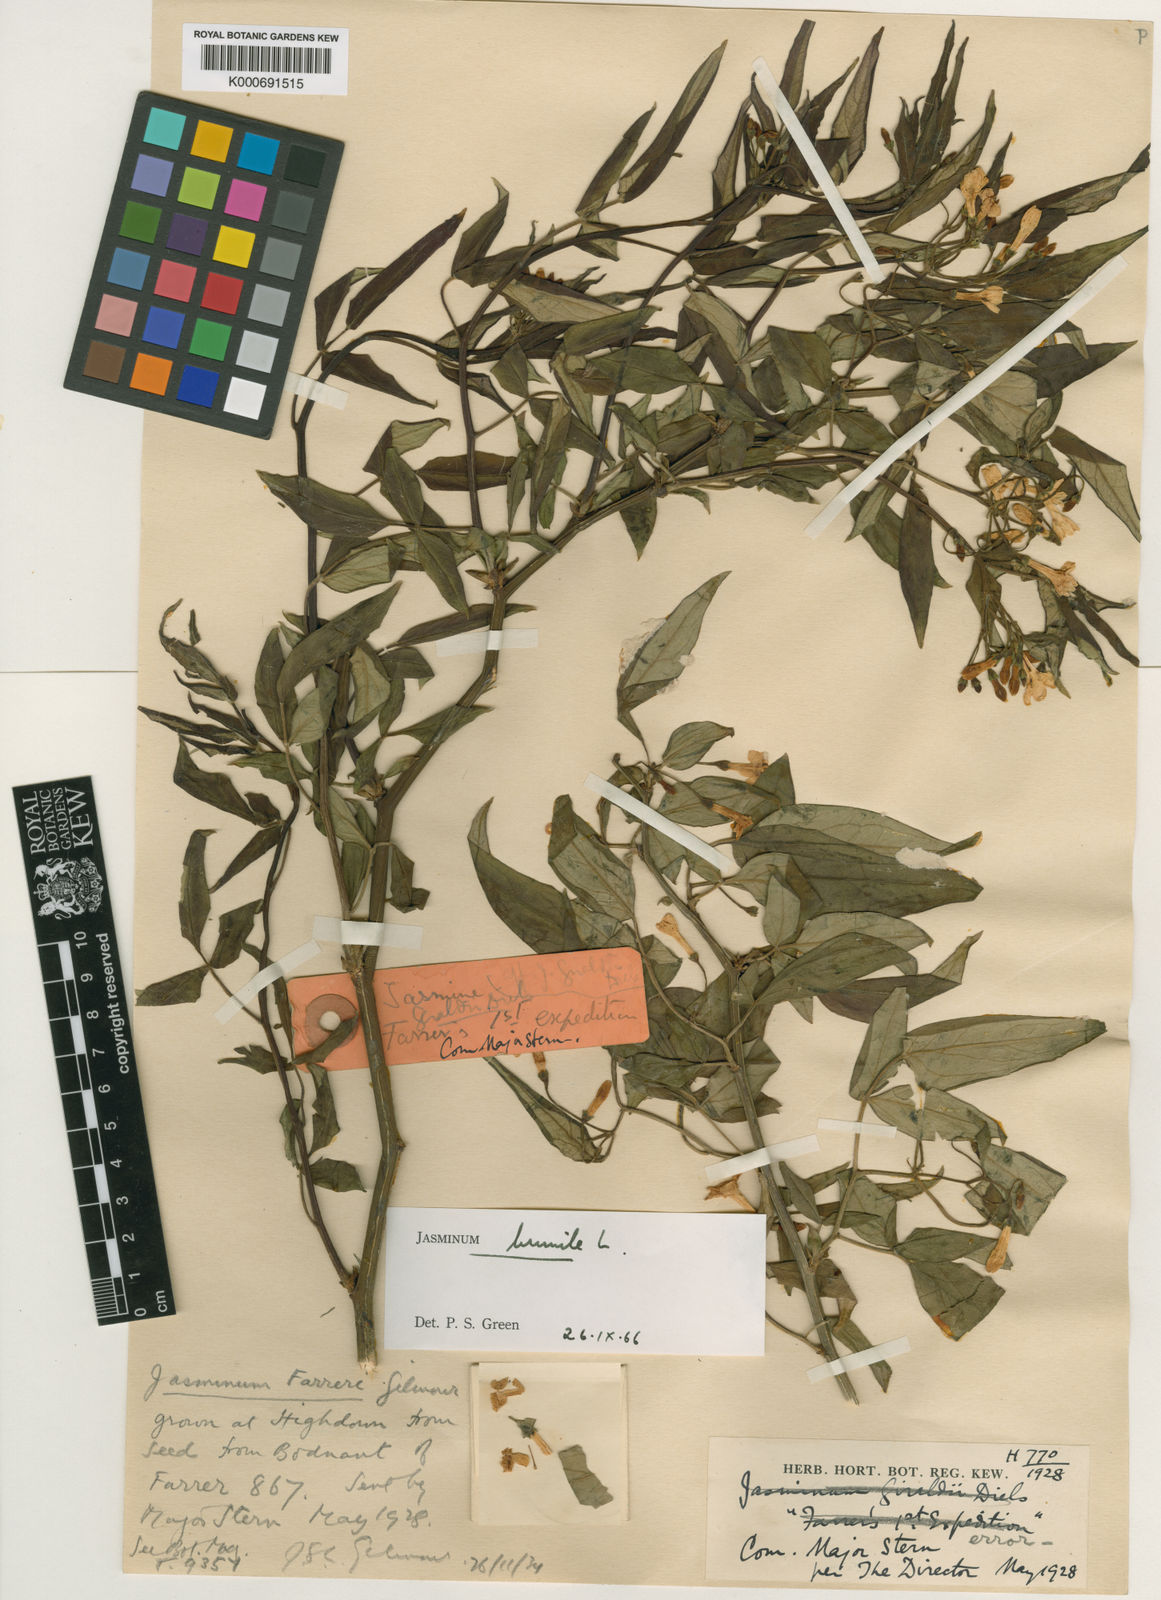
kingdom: Plantae
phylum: Tracheophyta
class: Magnoliopsida
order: Lamiales
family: Oleaceae
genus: Chrysojasminum
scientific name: Chrysojasminum humile
